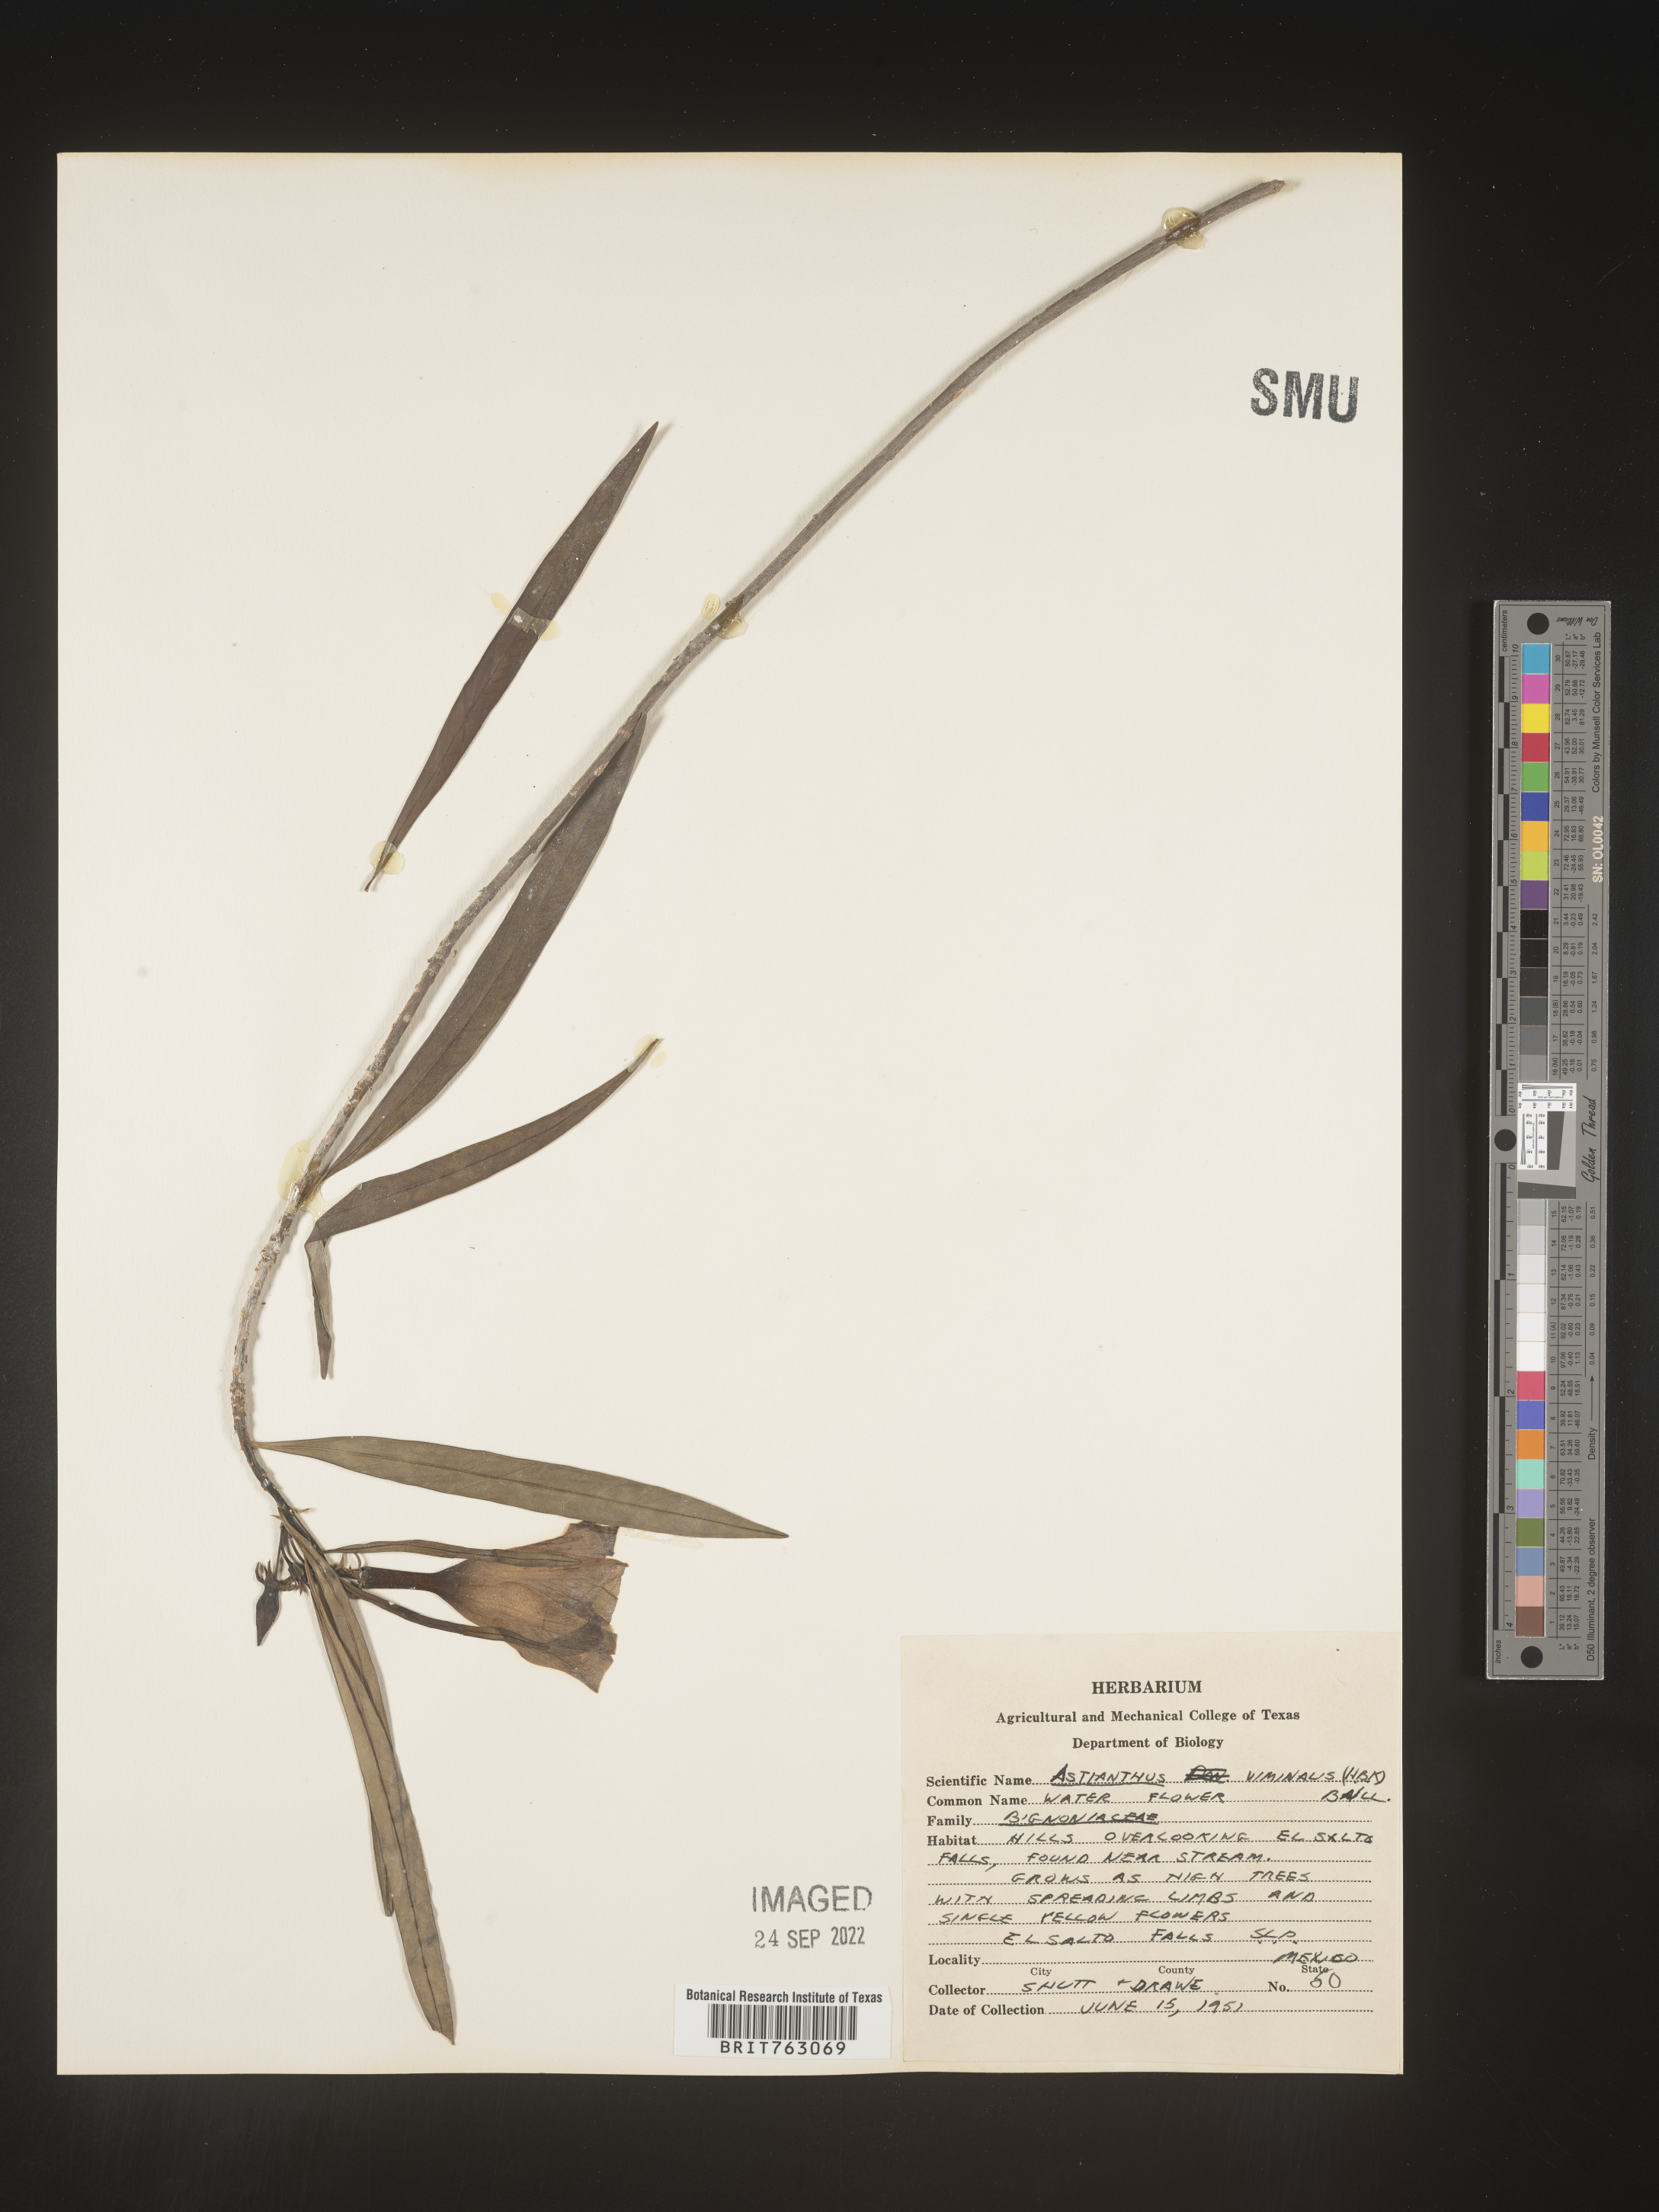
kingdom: Plantae
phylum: Tracheophyta
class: Magnoliopsida
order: Lamiales
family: Bignoniaceae
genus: Astianthus
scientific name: Astianthus
